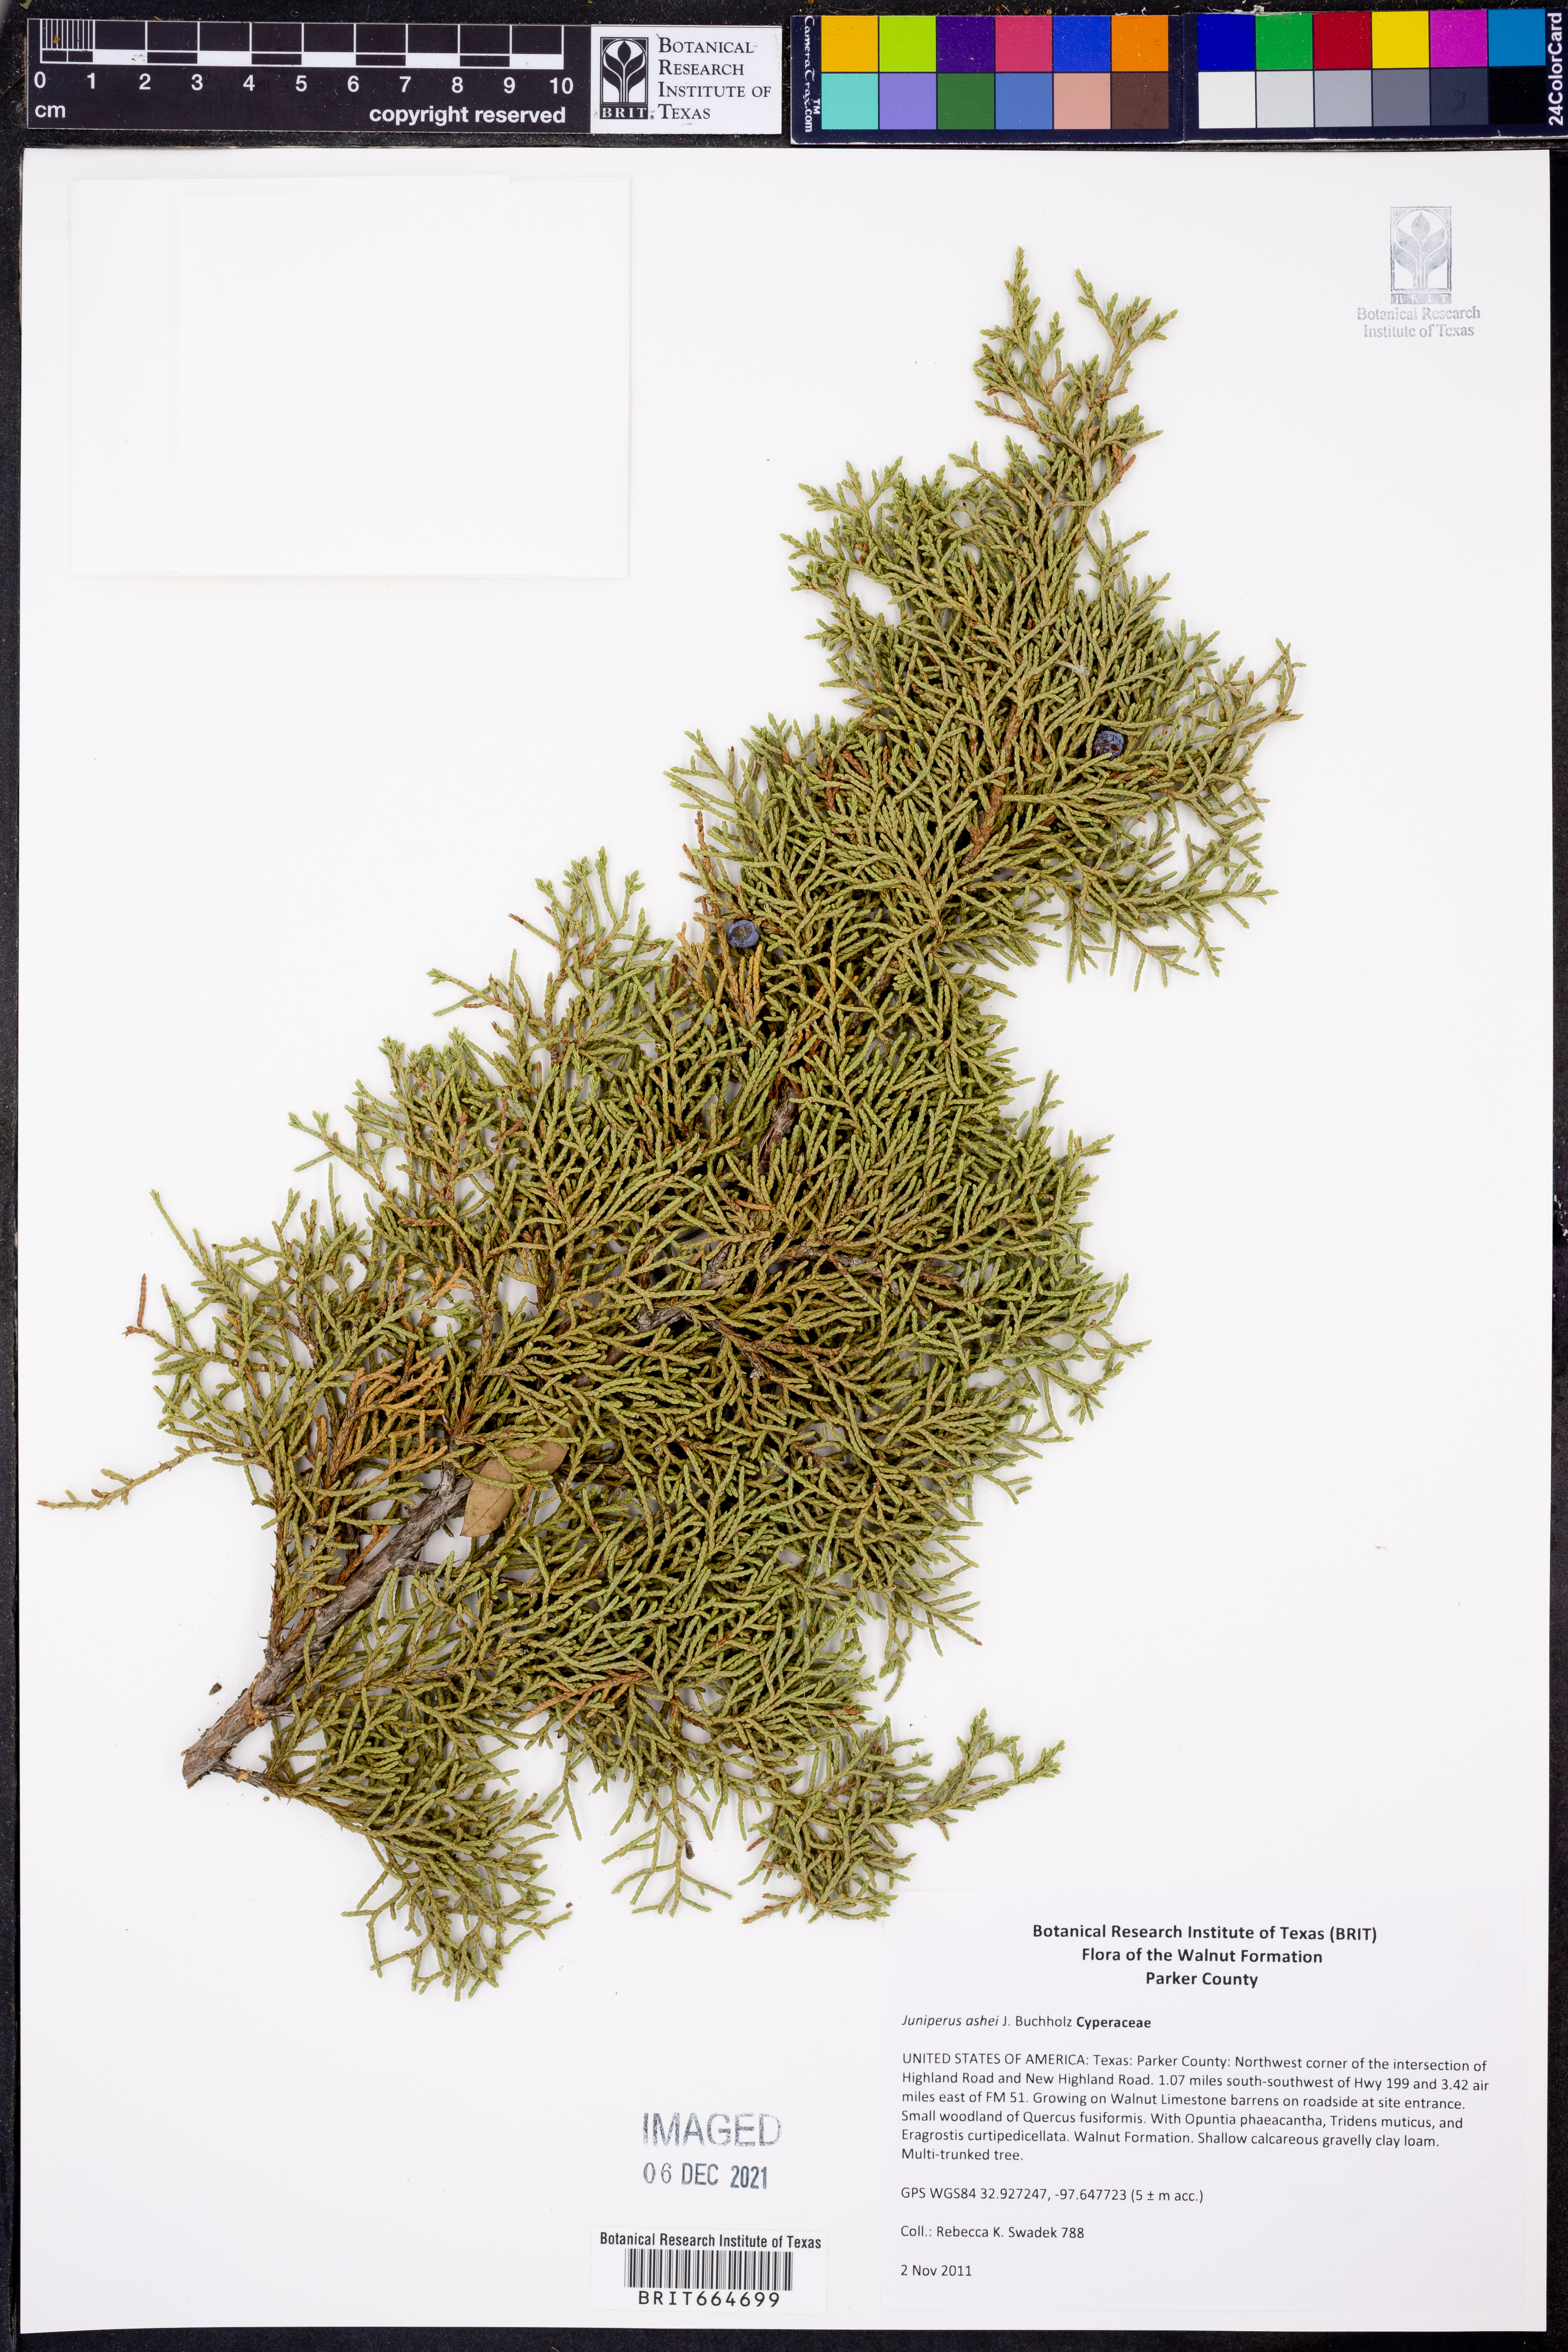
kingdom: Plantae
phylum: Tracheophyta
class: Pinopsida
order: Pinales
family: Cupressaceae
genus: Juniperus
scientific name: Juniperus ashei
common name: Mexican juniper
